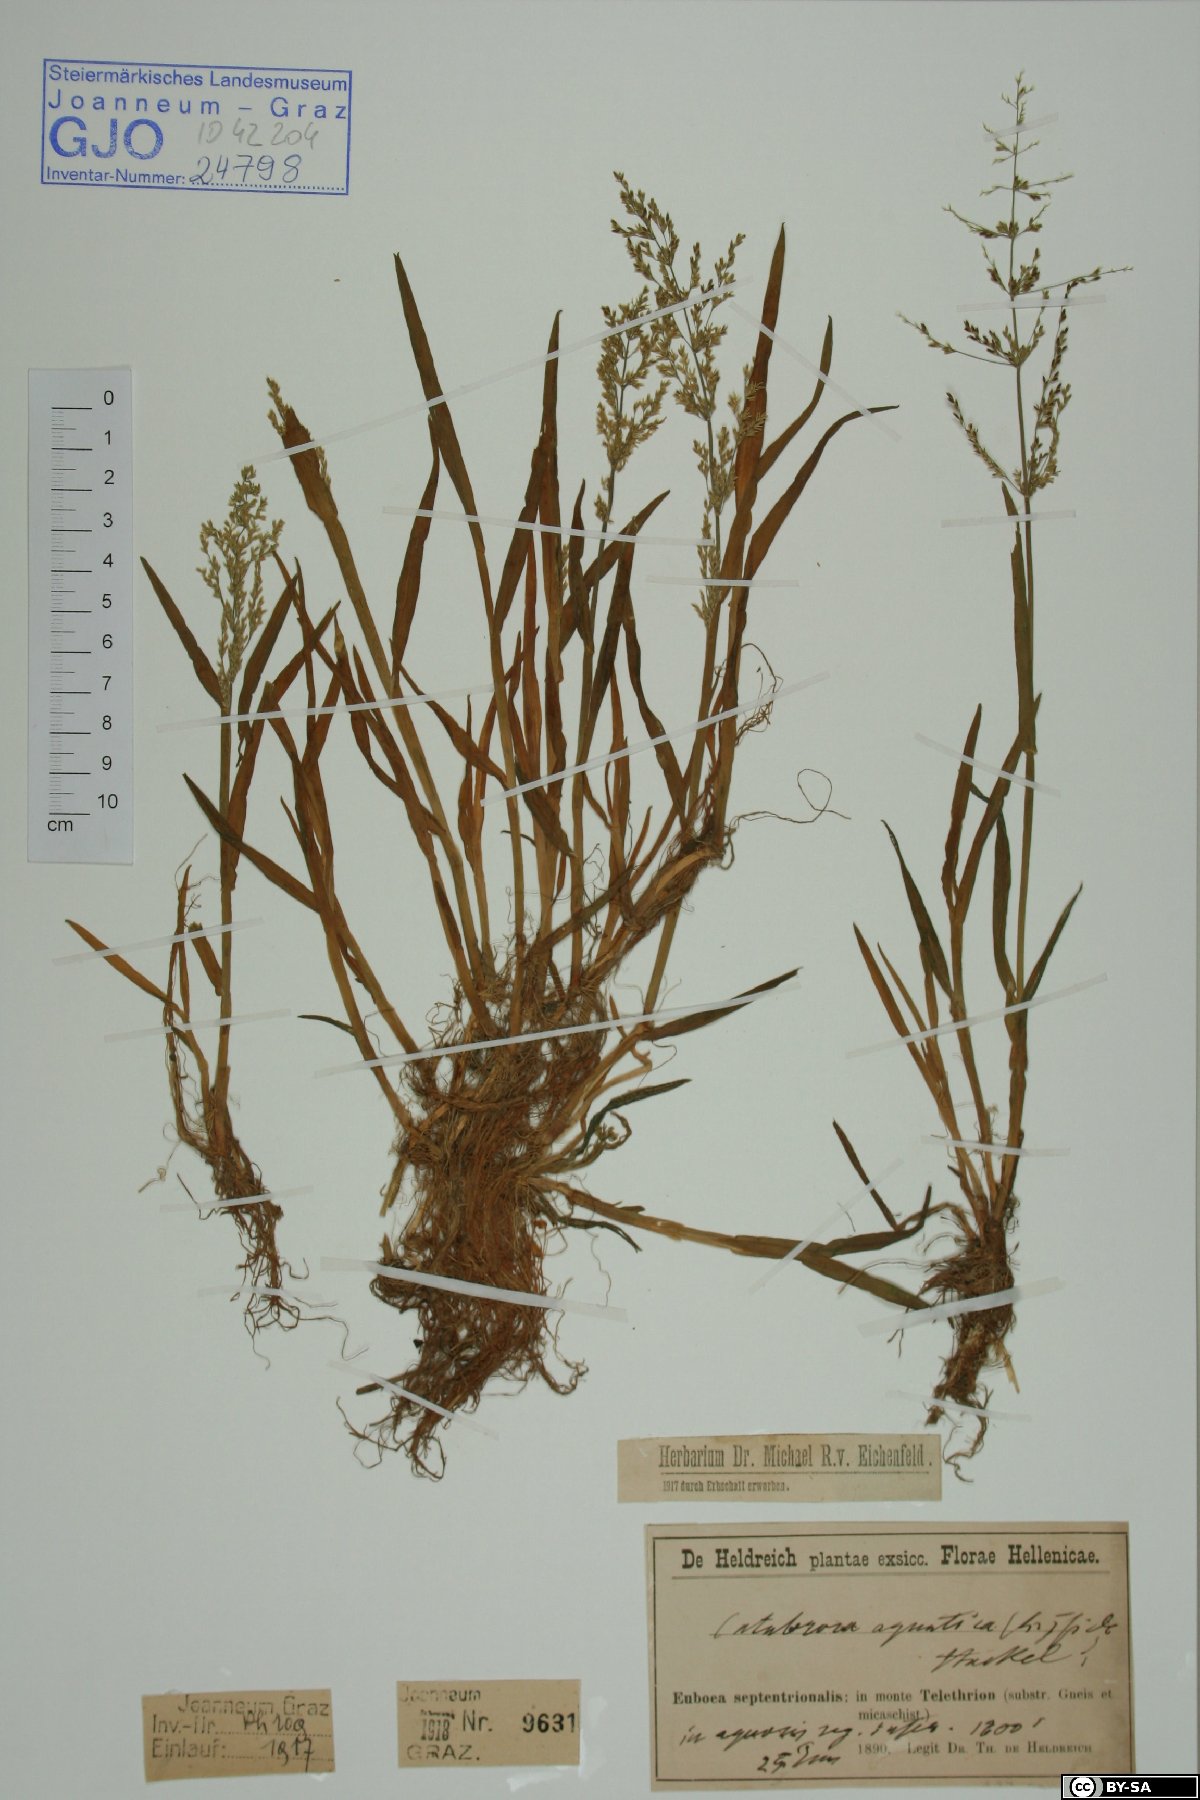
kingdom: Plantae
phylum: Tracheophyta
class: Liliopsida
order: Poales
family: Poaceae
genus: Catabrosa
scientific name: Catabrosa aquatica
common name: Whorl-grass
